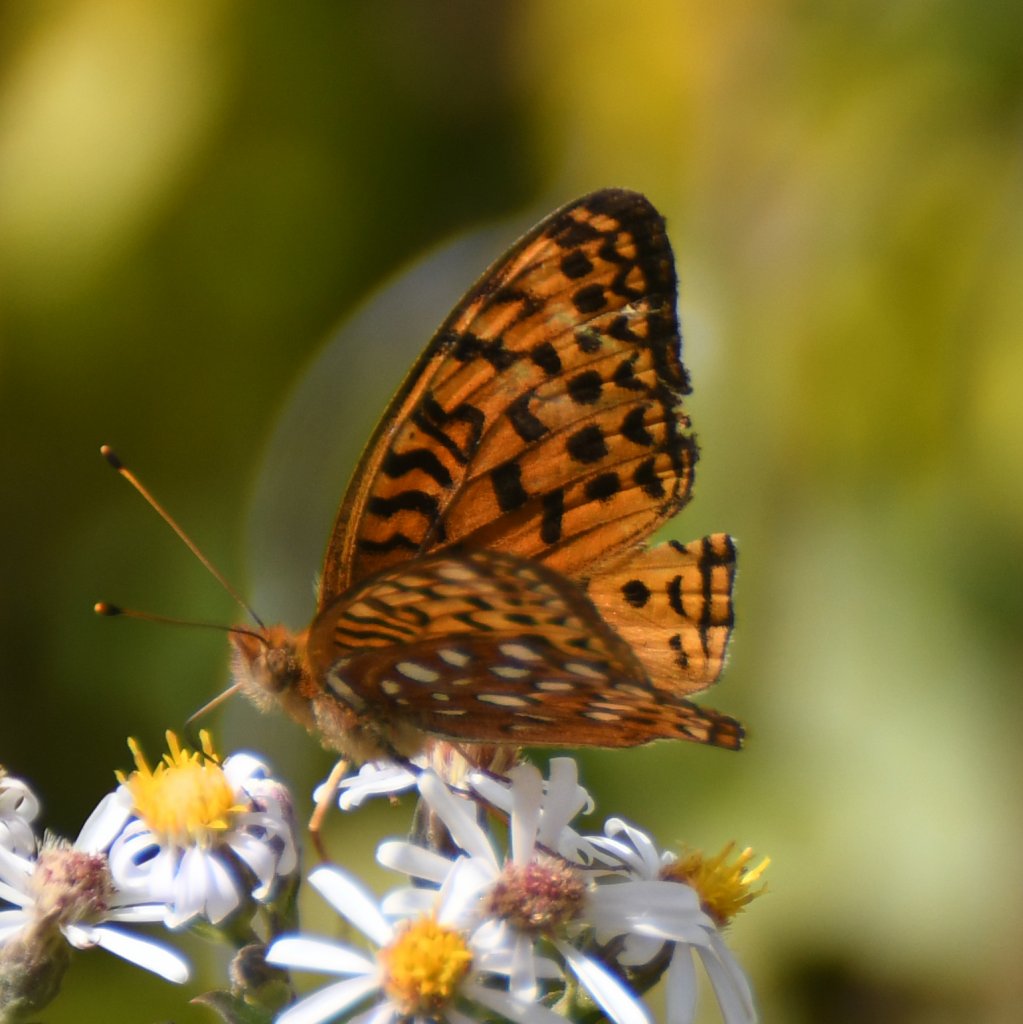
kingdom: Animalia
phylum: Arthropoda
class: Insecta
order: Lepidoptera
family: Nymphalidae
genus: Speyeria
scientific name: Speyeria aphrodite
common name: Aphrodite Fritillary
